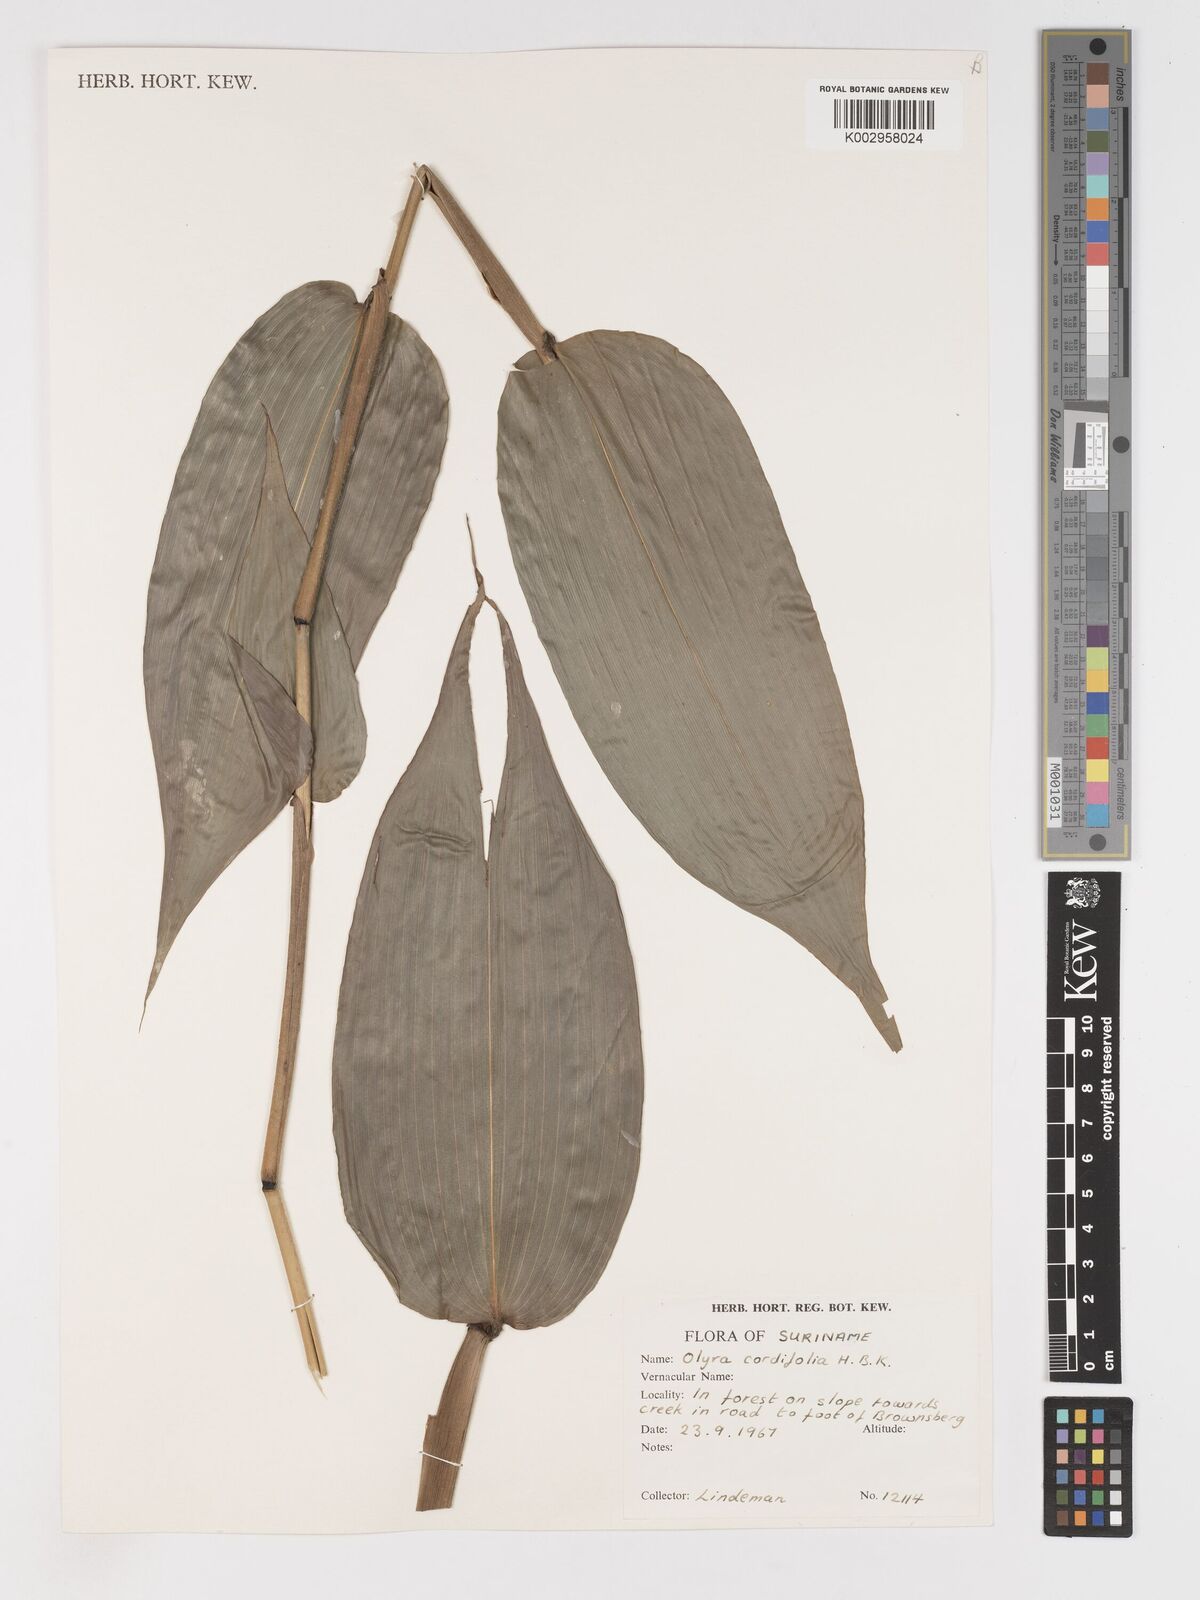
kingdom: Plantae
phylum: Tracheophyta
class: Liliopsida
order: Poales
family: Poaceae
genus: Olyra
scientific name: Olyra latifolia
